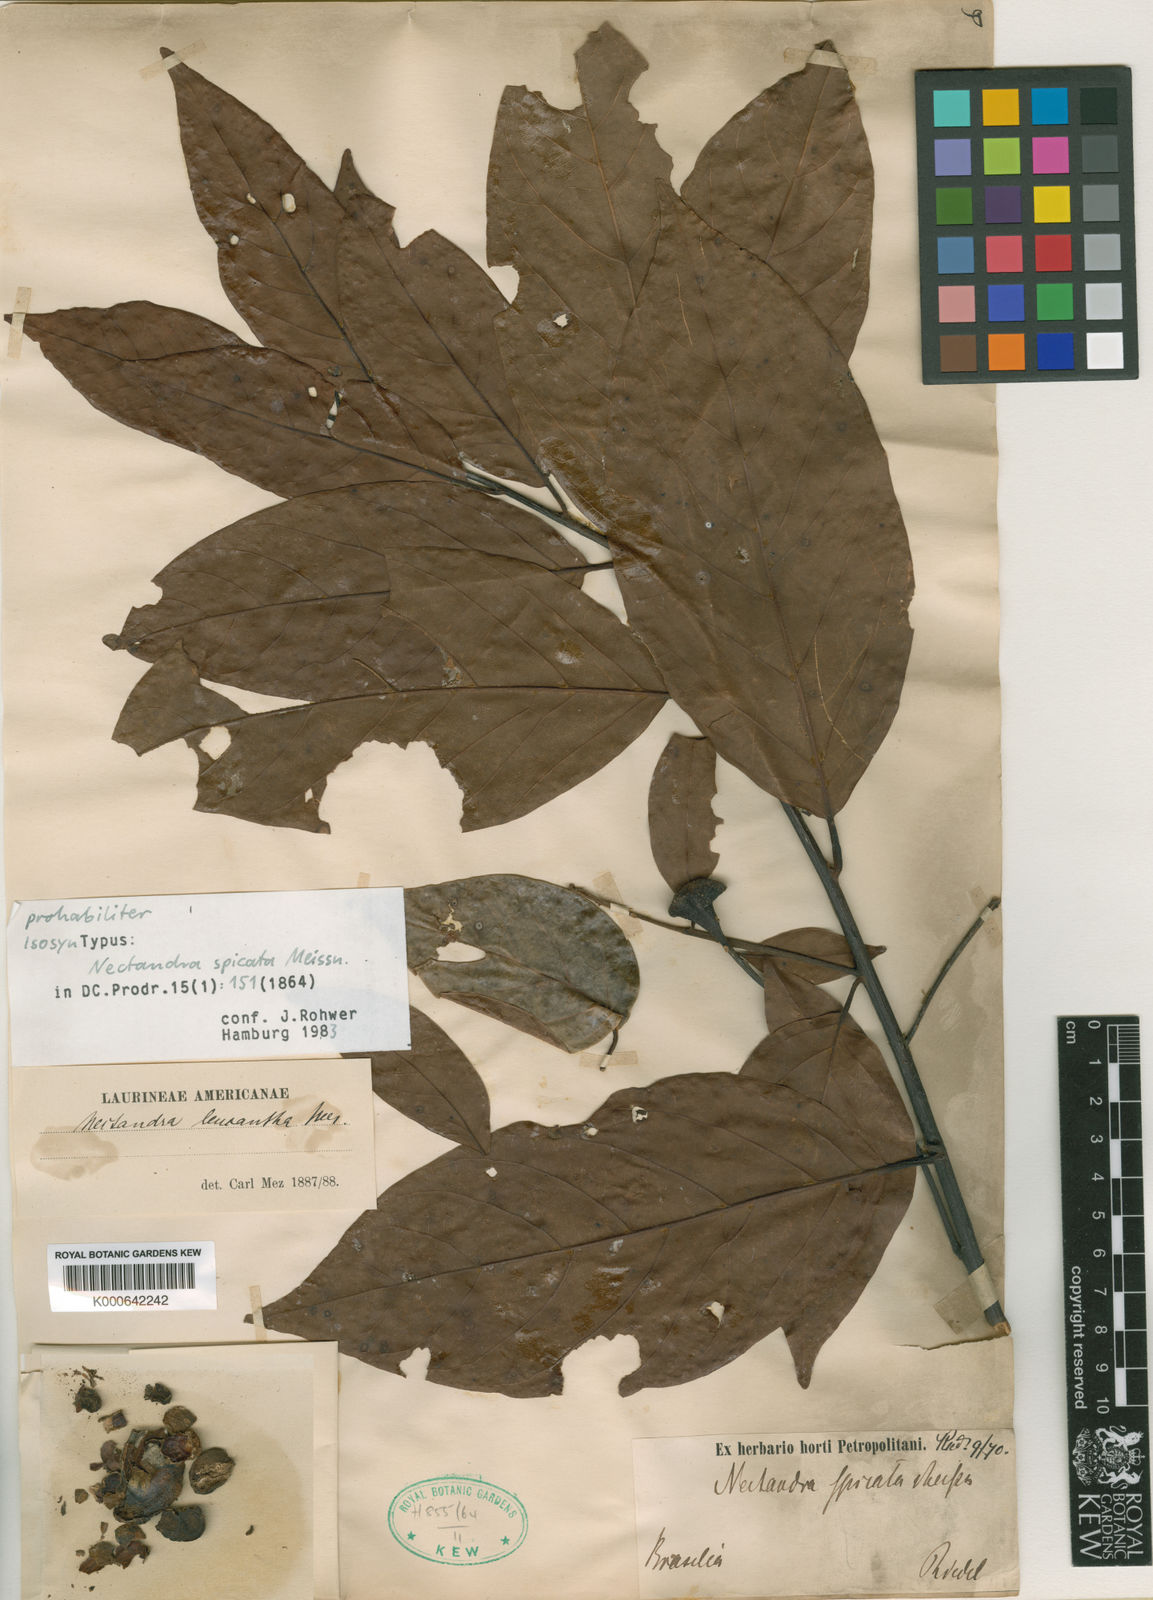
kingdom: Plantae
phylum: Tracheophyta
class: Magnoliopsida
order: Laurales
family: Lauraceae
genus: Nectandra
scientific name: Nectandra leucantha
